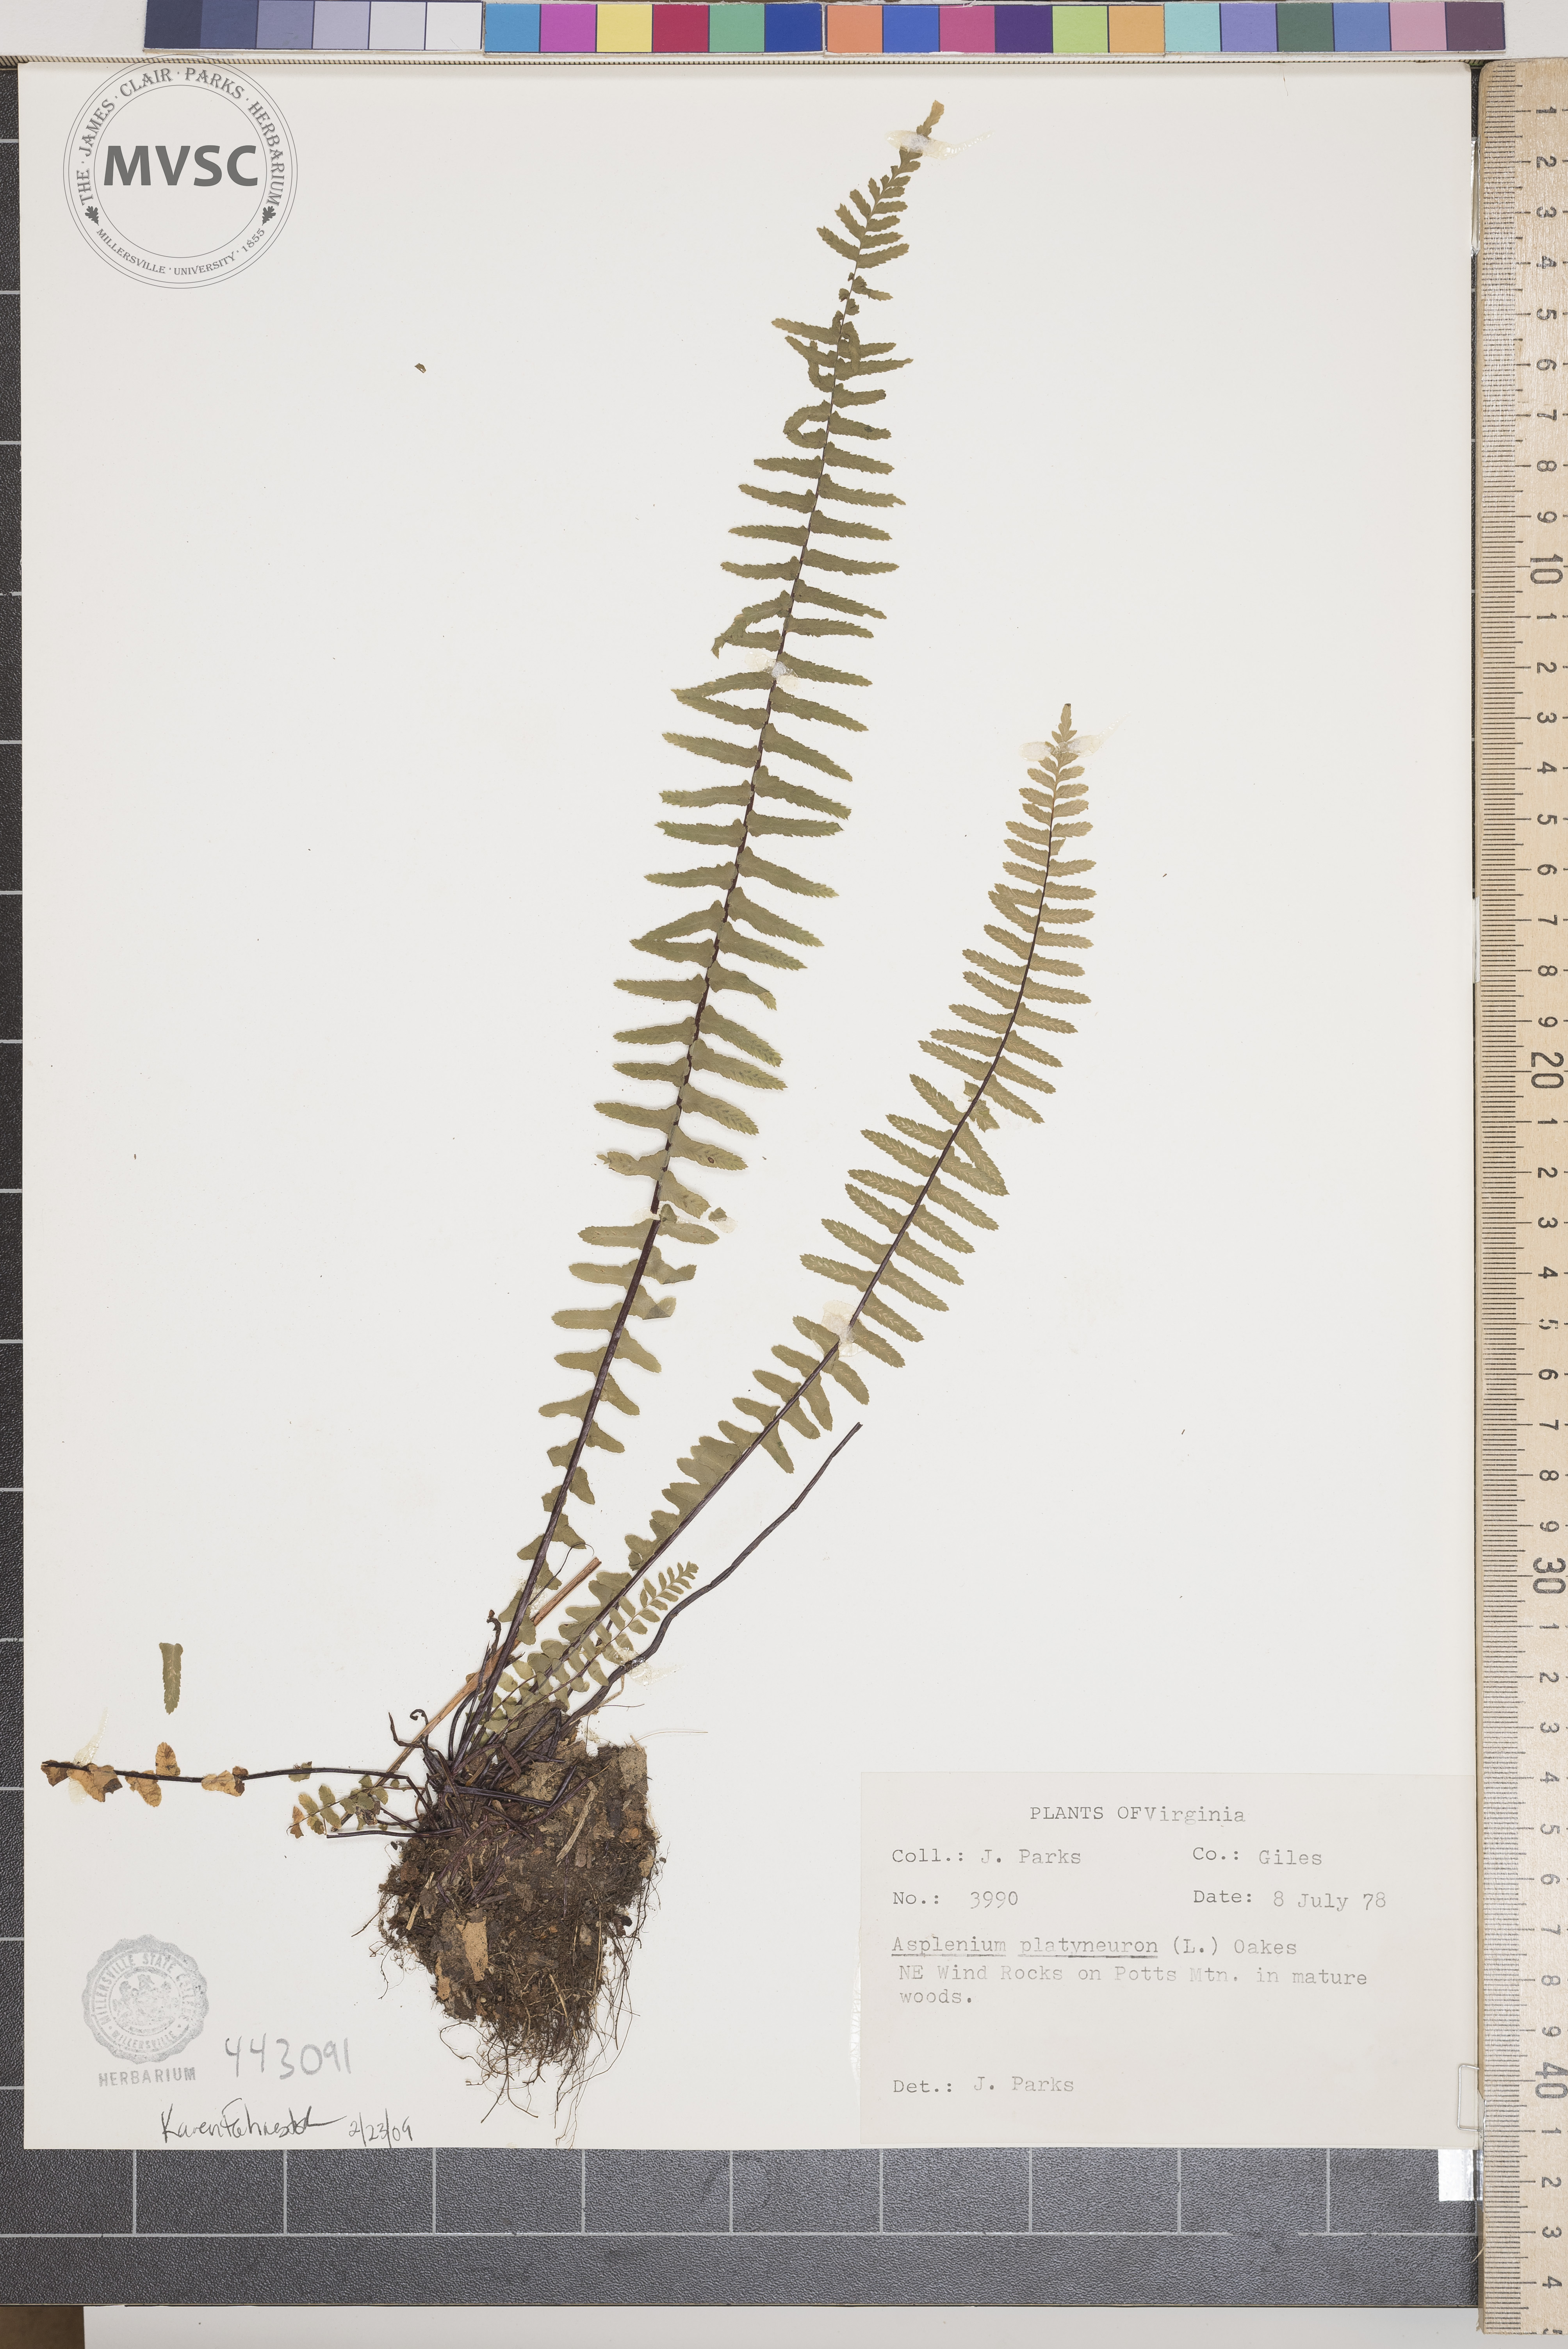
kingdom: Plantae
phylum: Tracheophyta
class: Polypodiopsida
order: Polypodiales
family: Aspleniaceae
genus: Asplenium
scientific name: Asplenium platyneuron
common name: Ebony spleenwort
